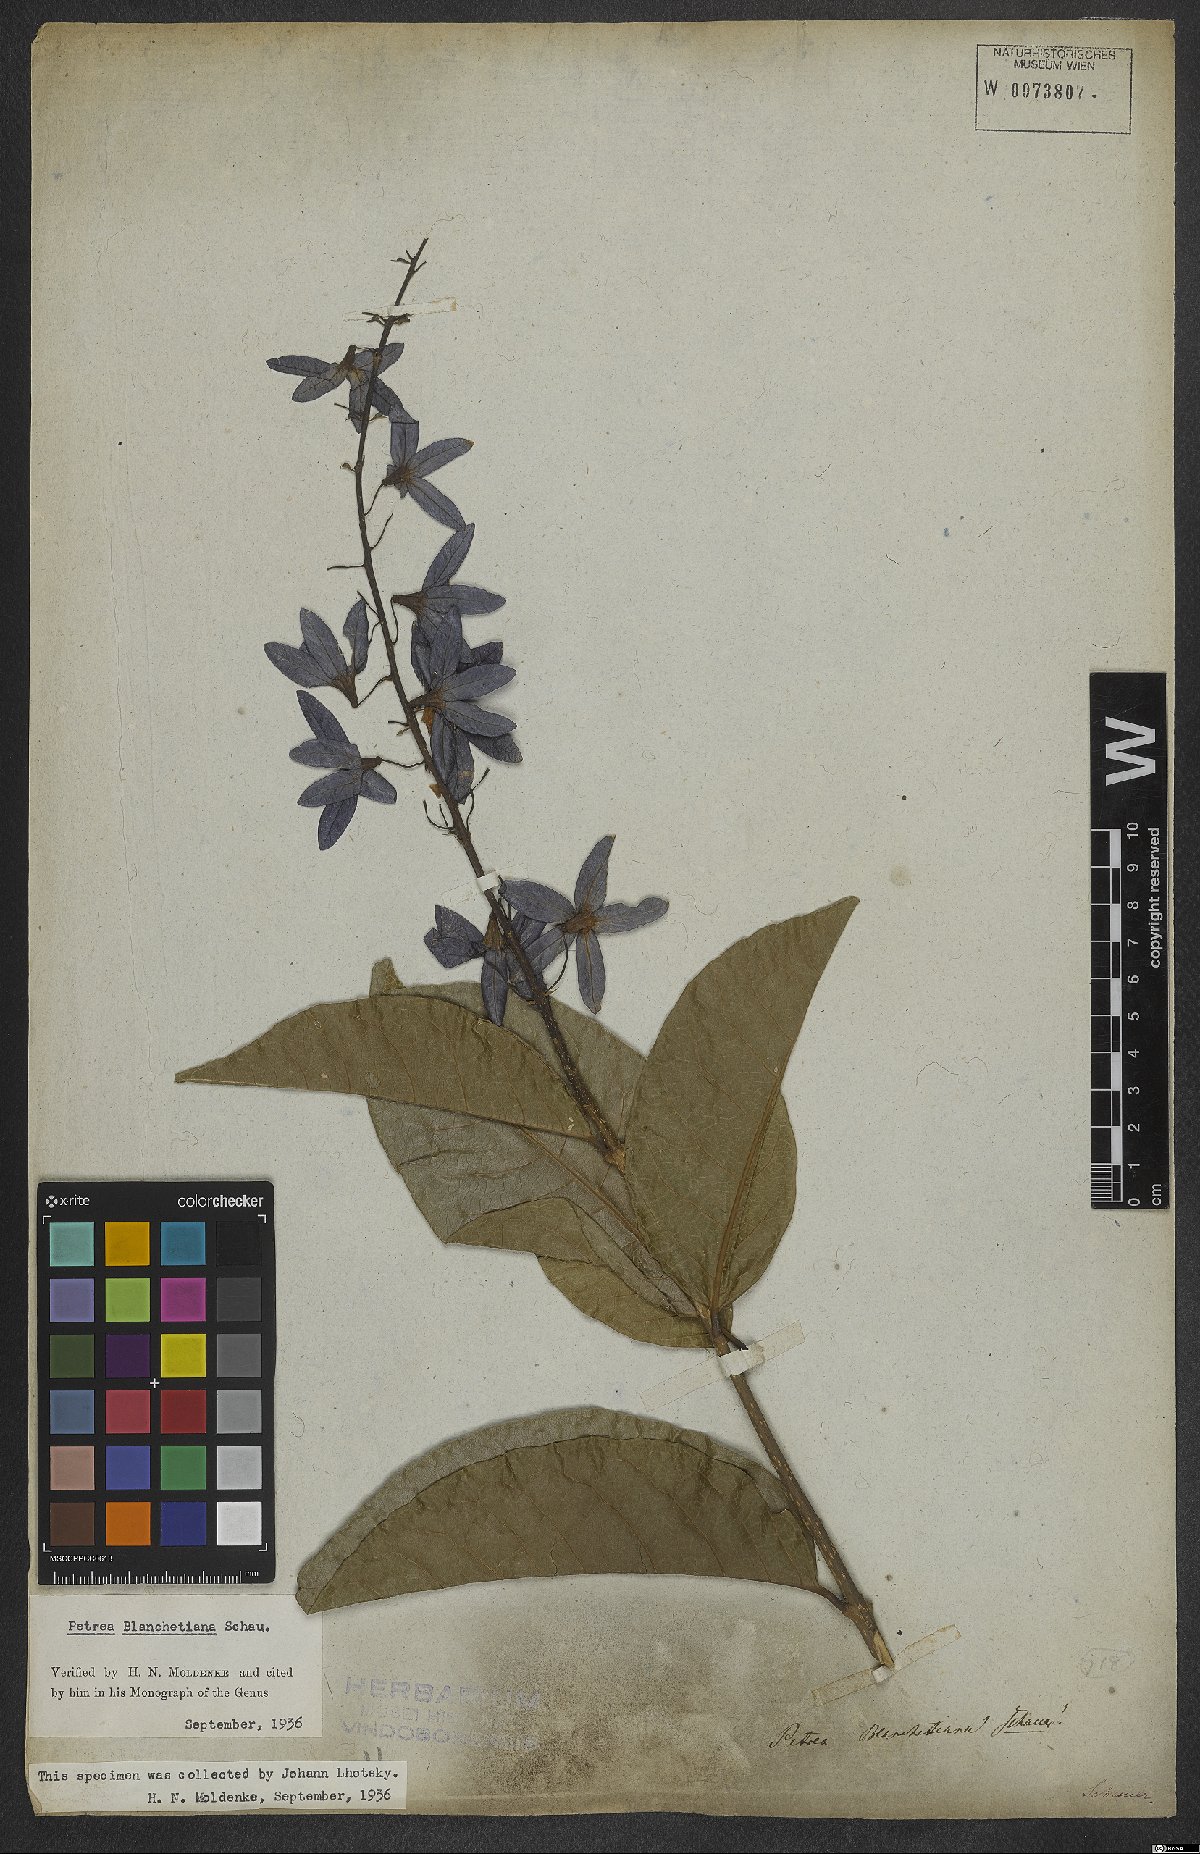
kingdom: Plantae
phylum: Tracheophyta
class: Magnoliopsida
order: Lamiales
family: Verbenaceae
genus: Petrea
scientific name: Petrea blanchetiana
